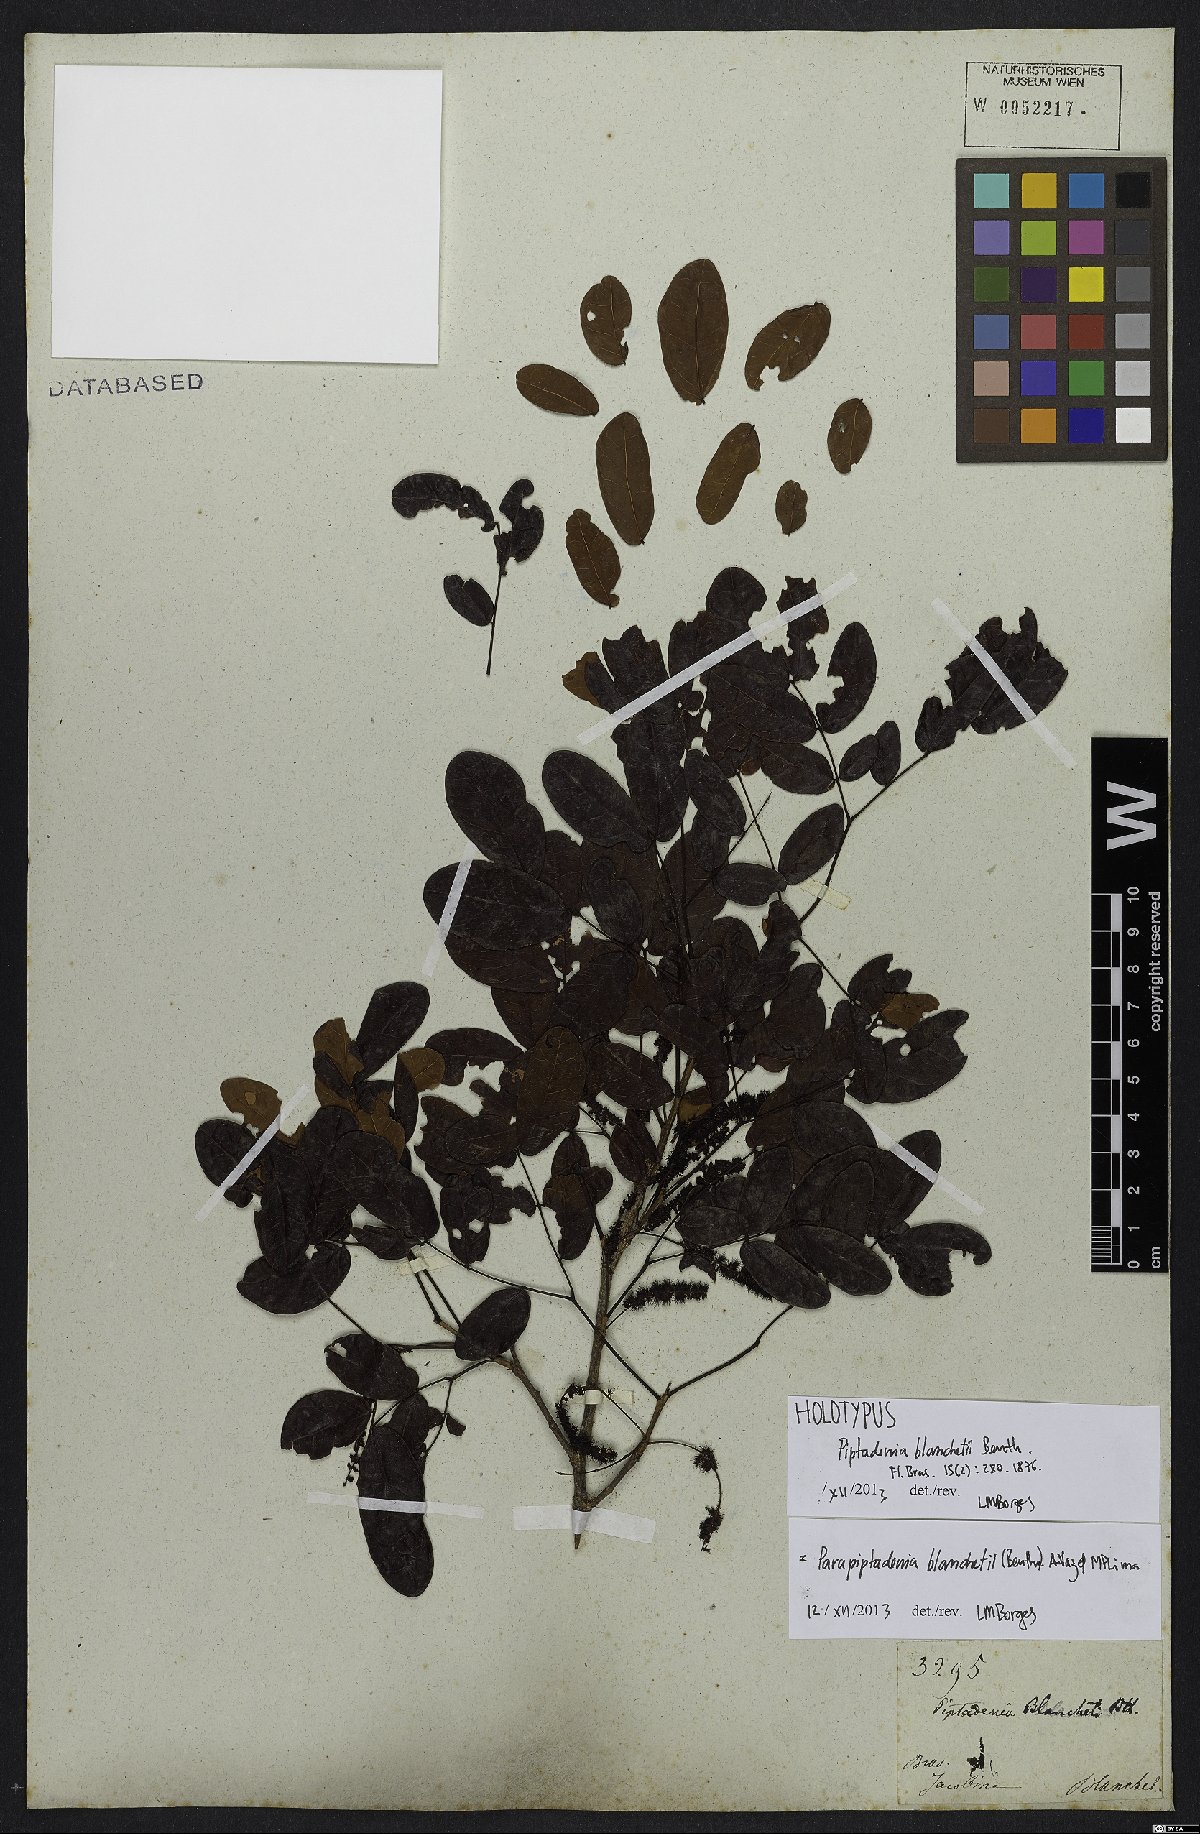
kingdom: Plantae
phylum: Tracheophyta
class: Magnoliopsida
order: Fabales
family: Fabaceae
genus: Parapiptadenia
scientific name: Parapiptadenia blanchetii
